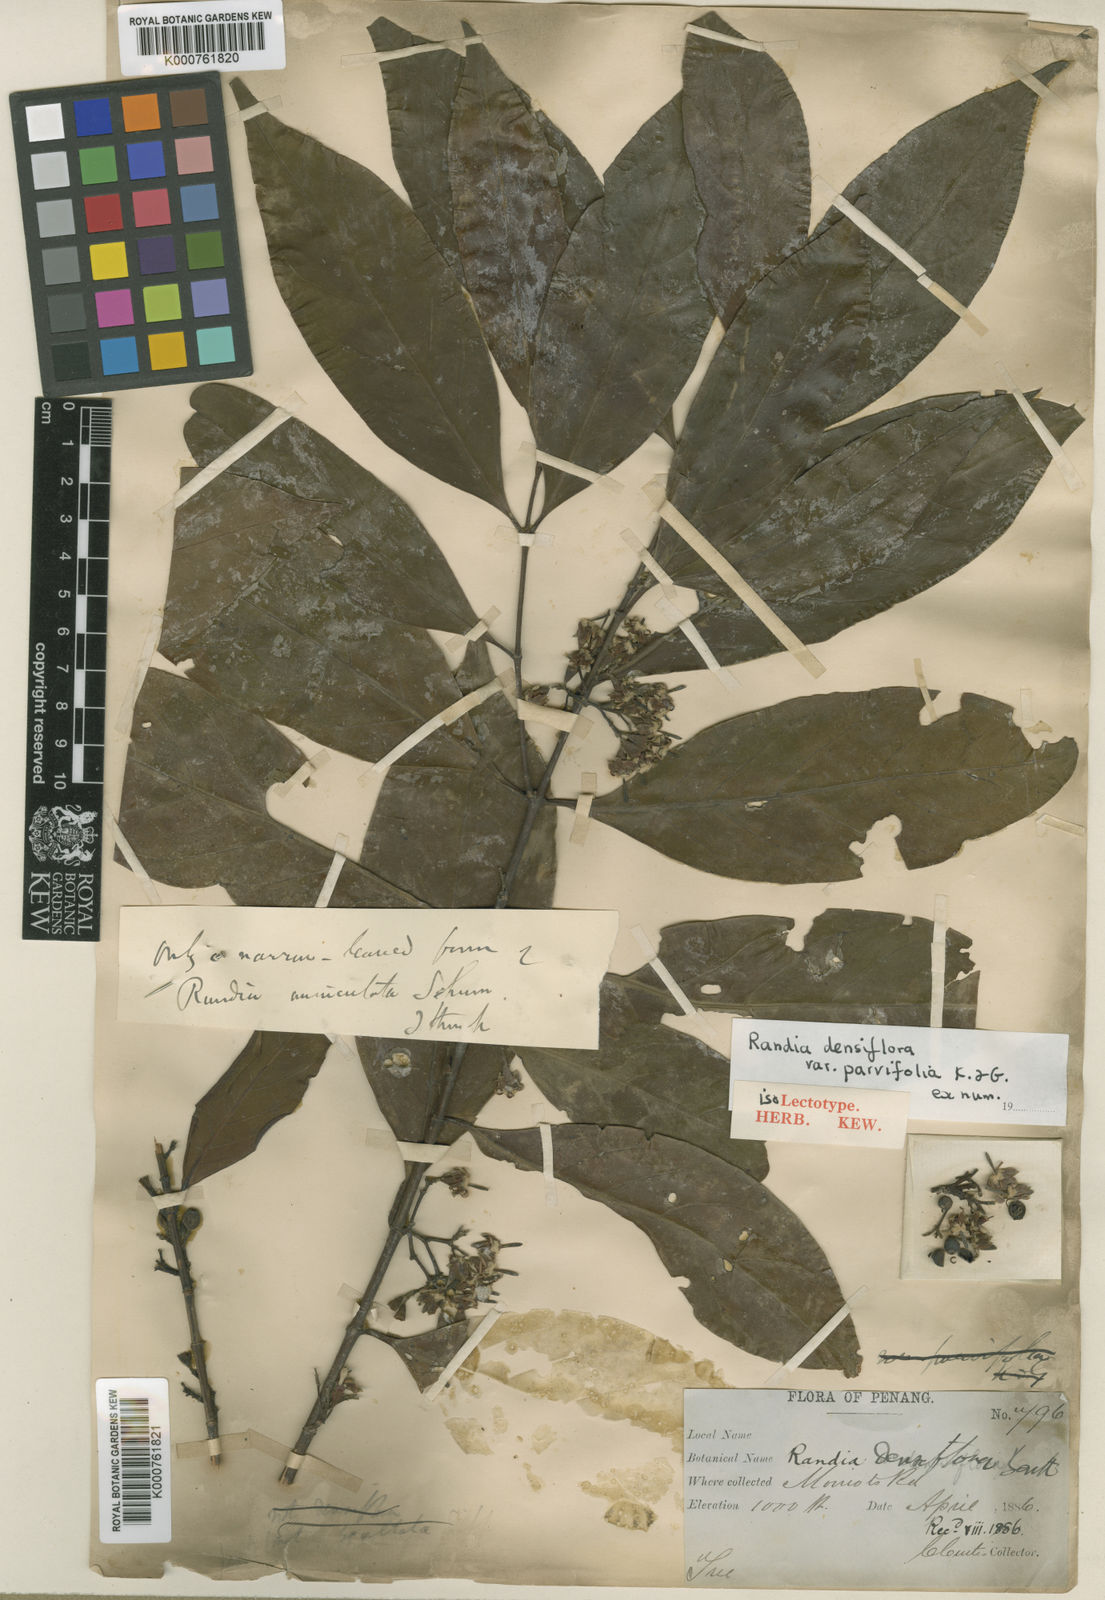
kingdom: Plantae
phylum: Tracheophyta
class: Magnoliopsida
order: Gentianales
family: Rubiaceae
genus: Aidia
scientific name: Aidia parvifolia
